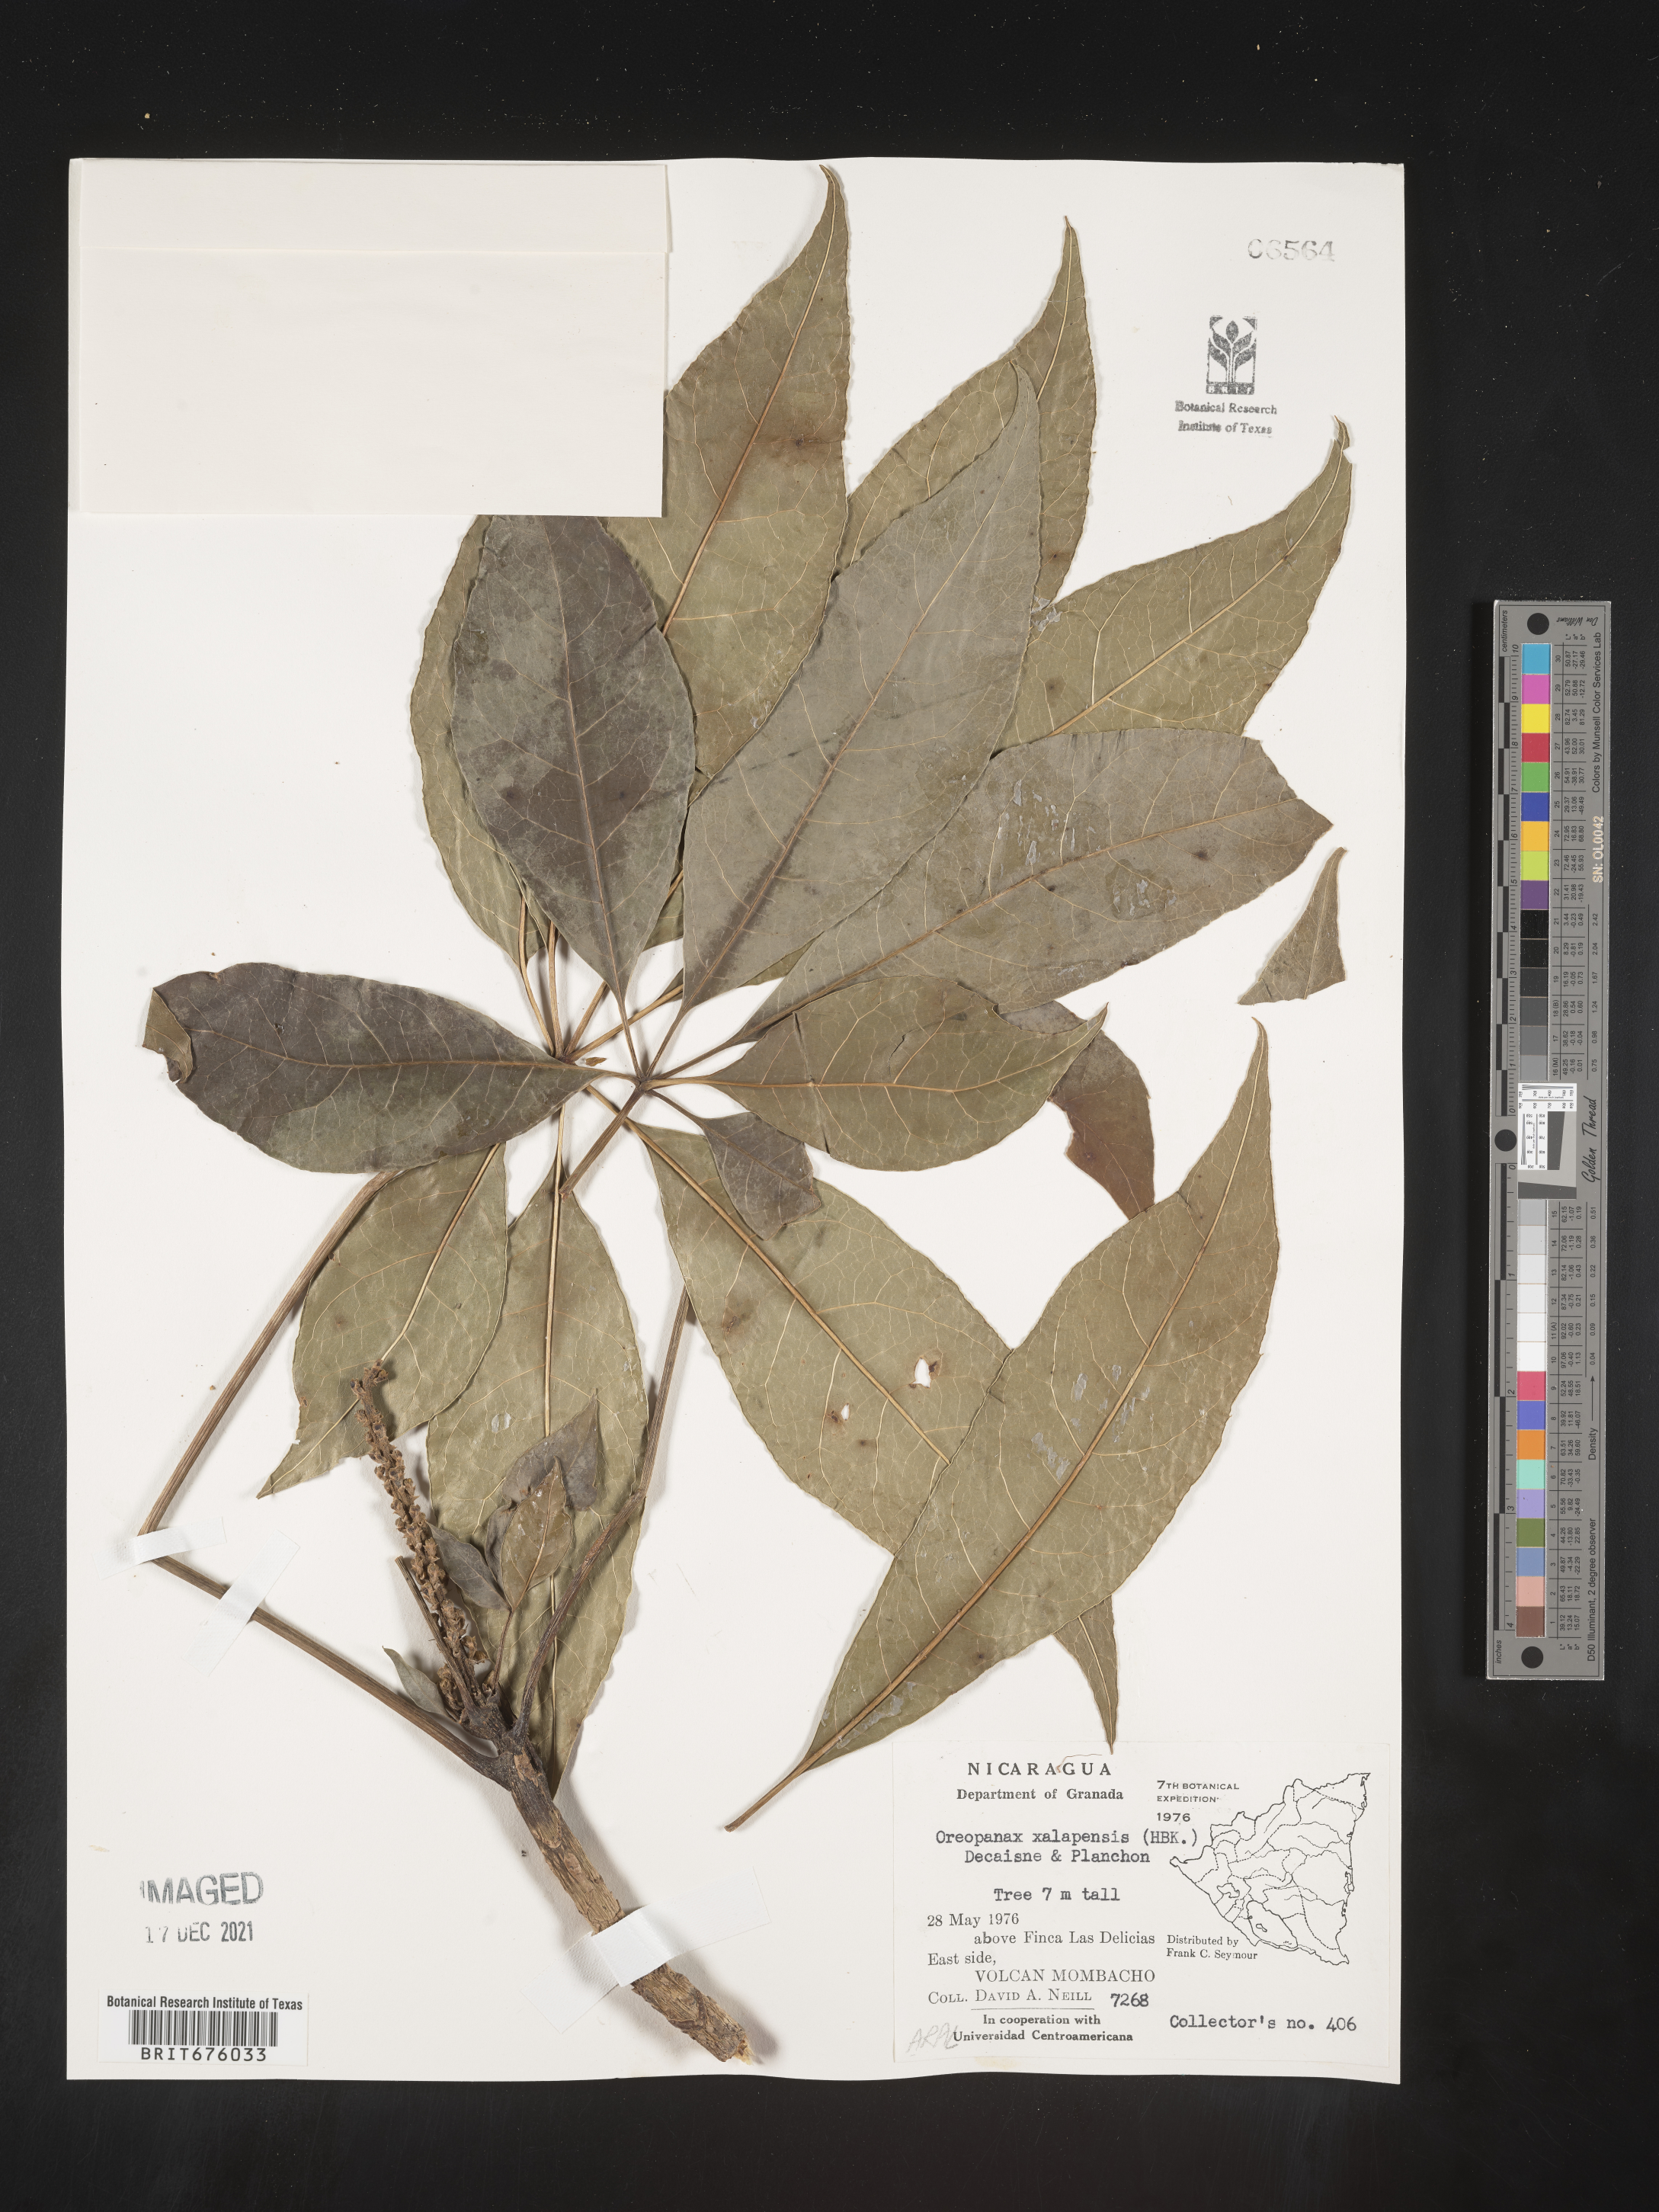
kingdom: Plantae
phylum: Tracheophyta
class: Magnoliopsida
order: Apiales
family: Araliaceae
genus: Oreopanax
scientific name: Oreopanax
